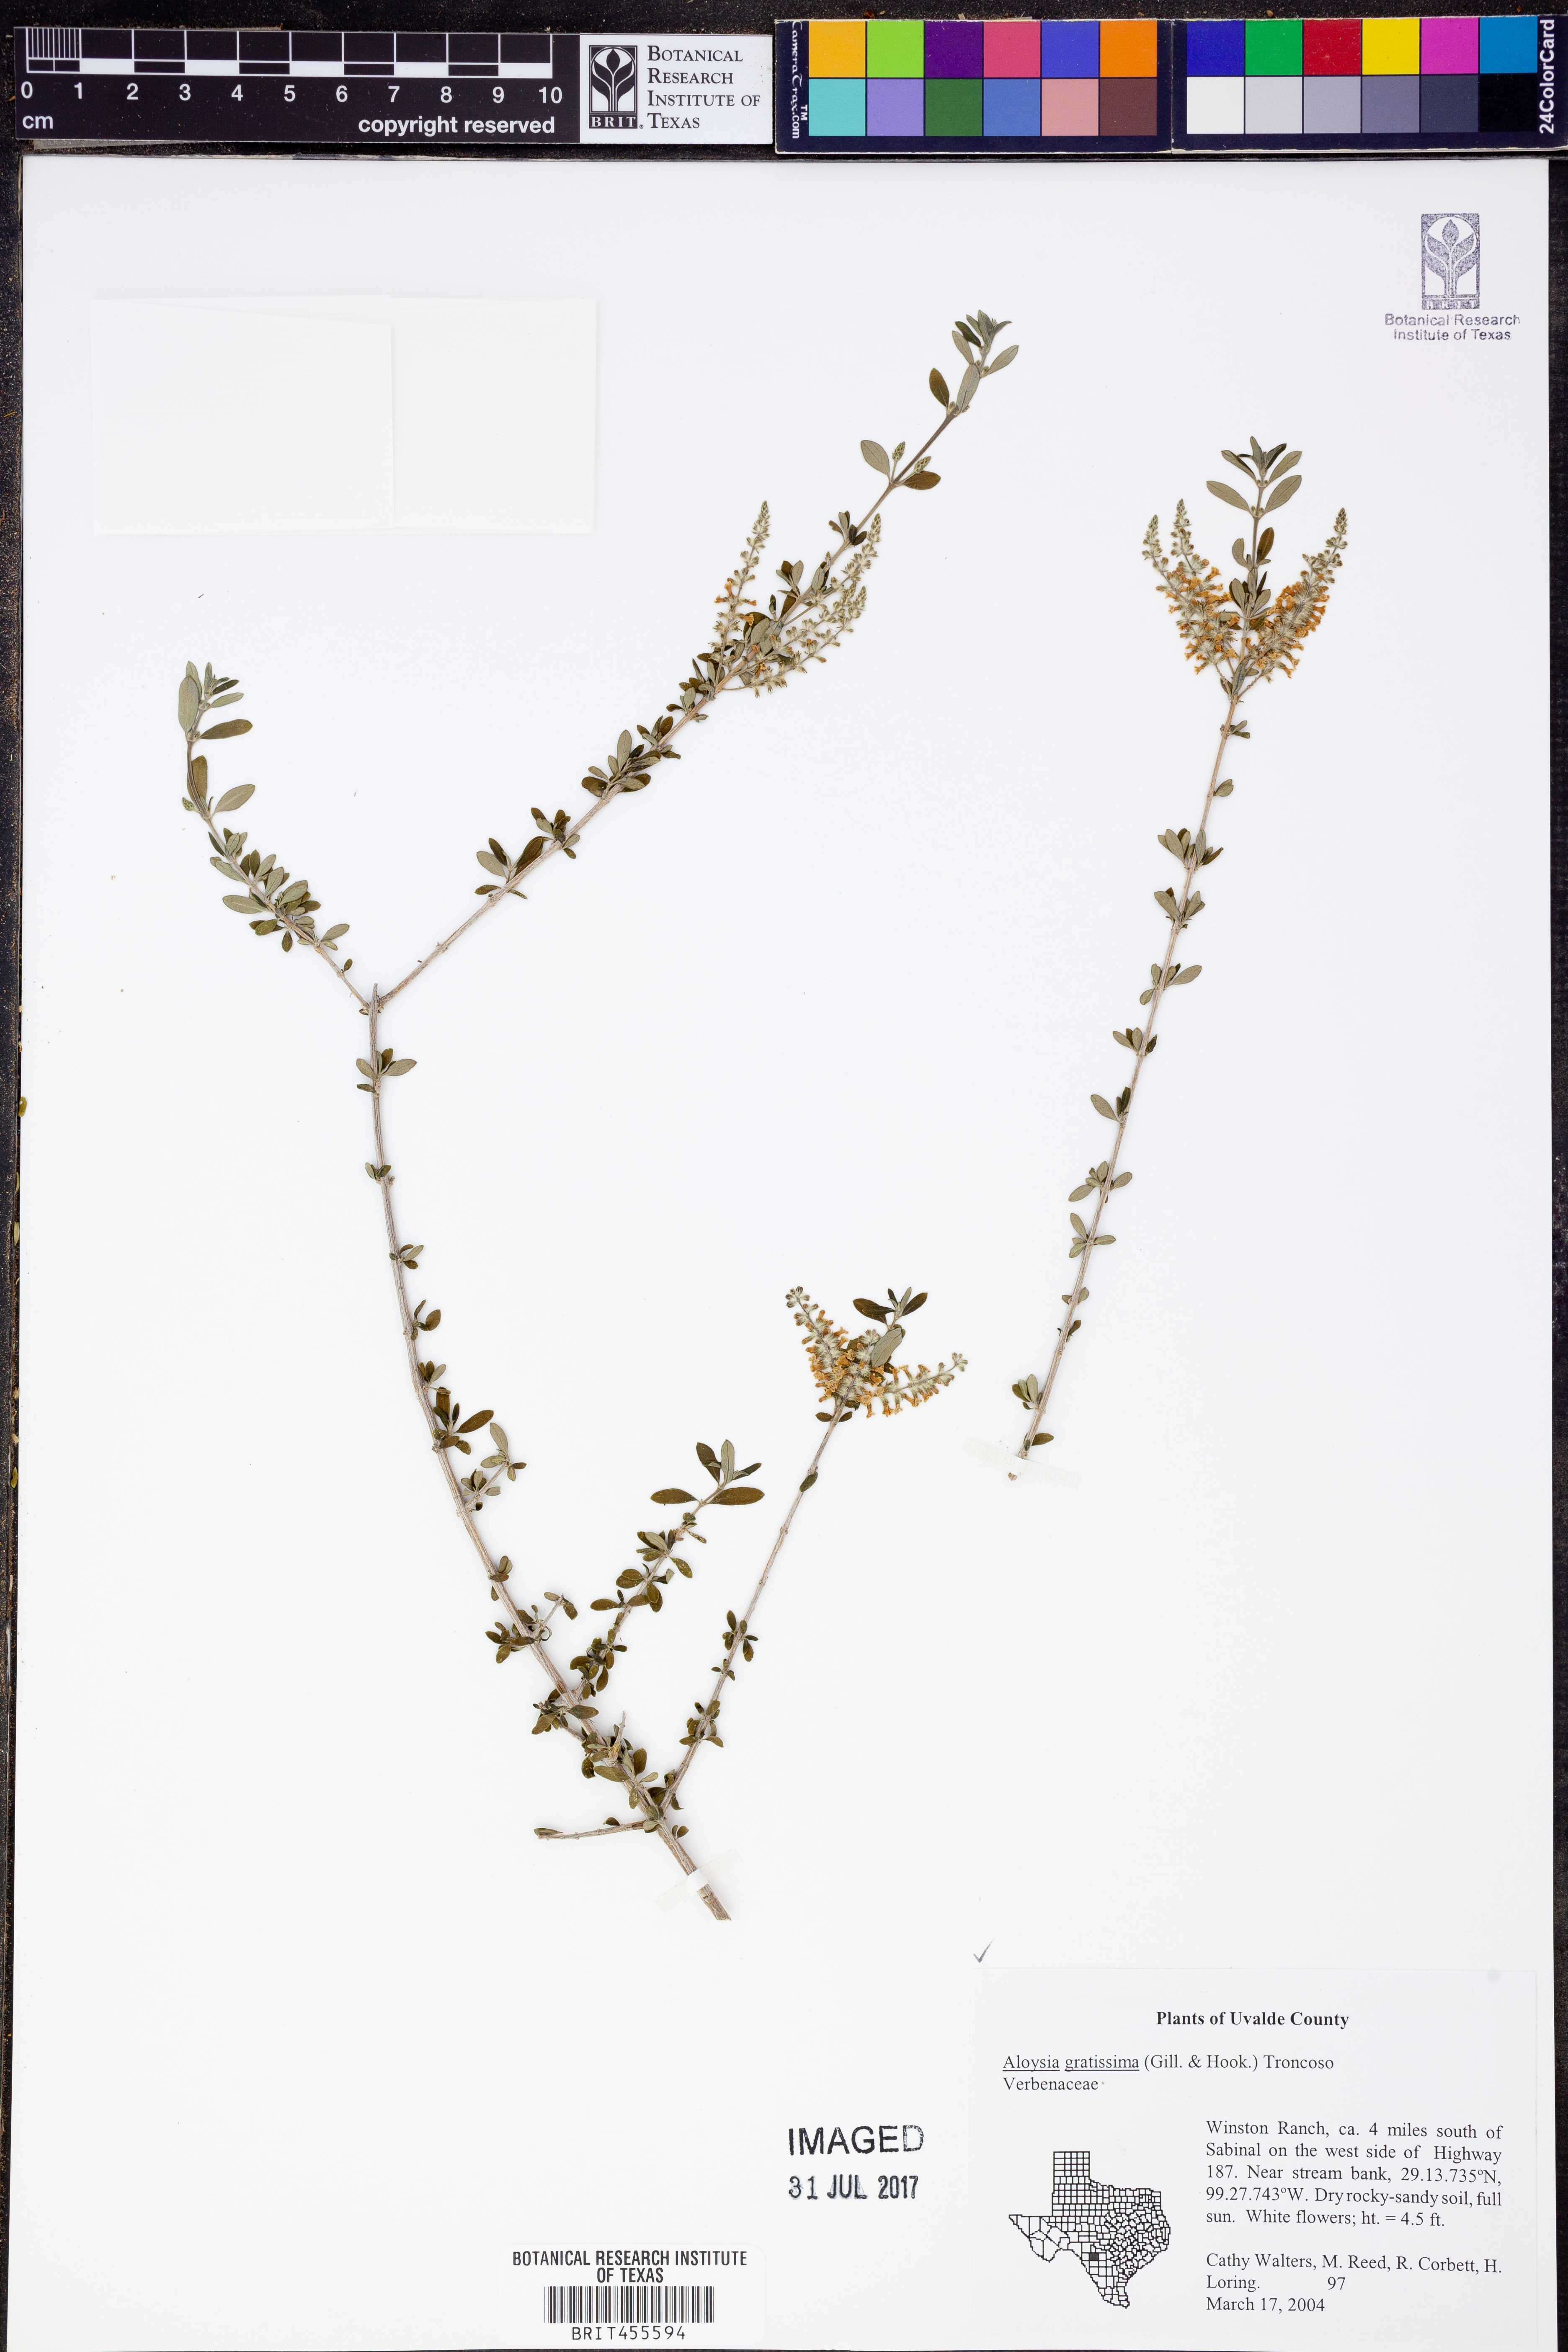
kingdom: Plantae
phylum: Tracheophyta
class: Magnoliopsida
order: Lamiales
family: Verbenaceae
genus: Aloysia
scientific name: Aloysia gratissima
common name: Common bee-brush
